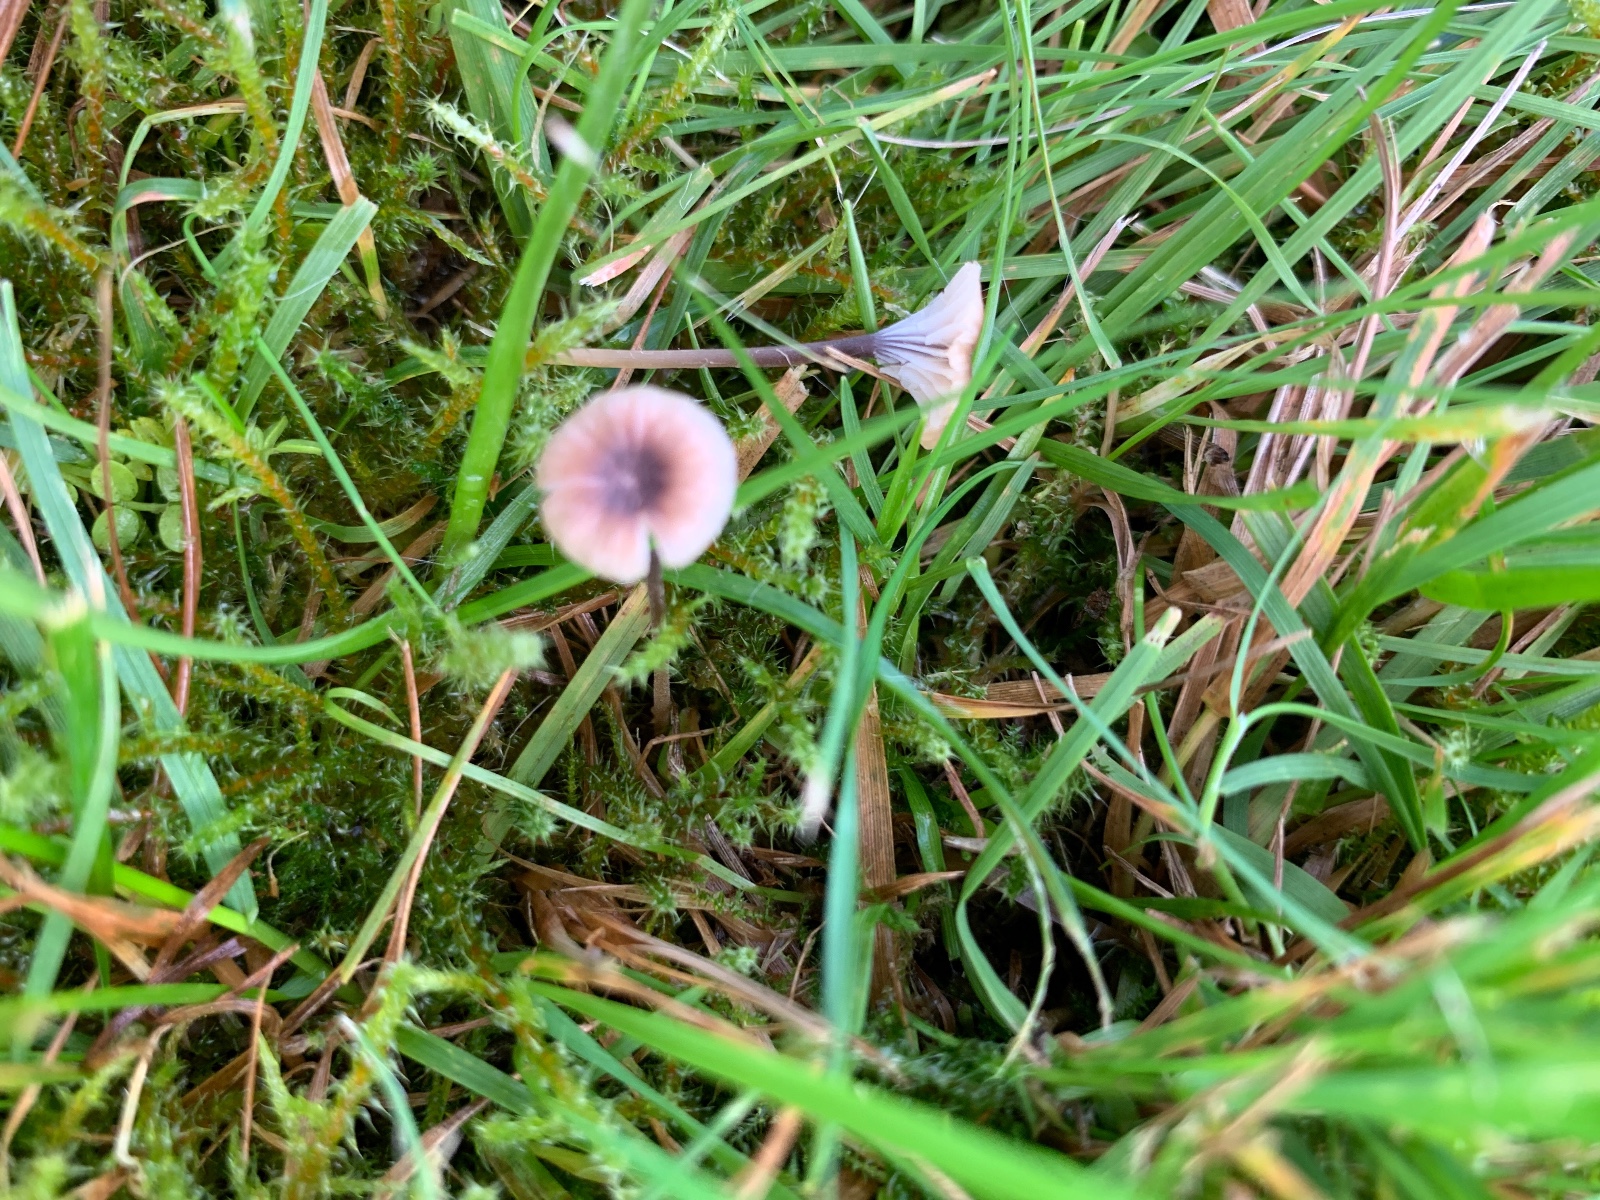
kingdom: Fungi
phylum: Basidiomycota
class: Agaricomycetes
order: Hymenochaetales
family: Rickenellaceae
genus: Rickenella
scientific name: Rickenella swartzii
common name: finstokket mosnavlehat
